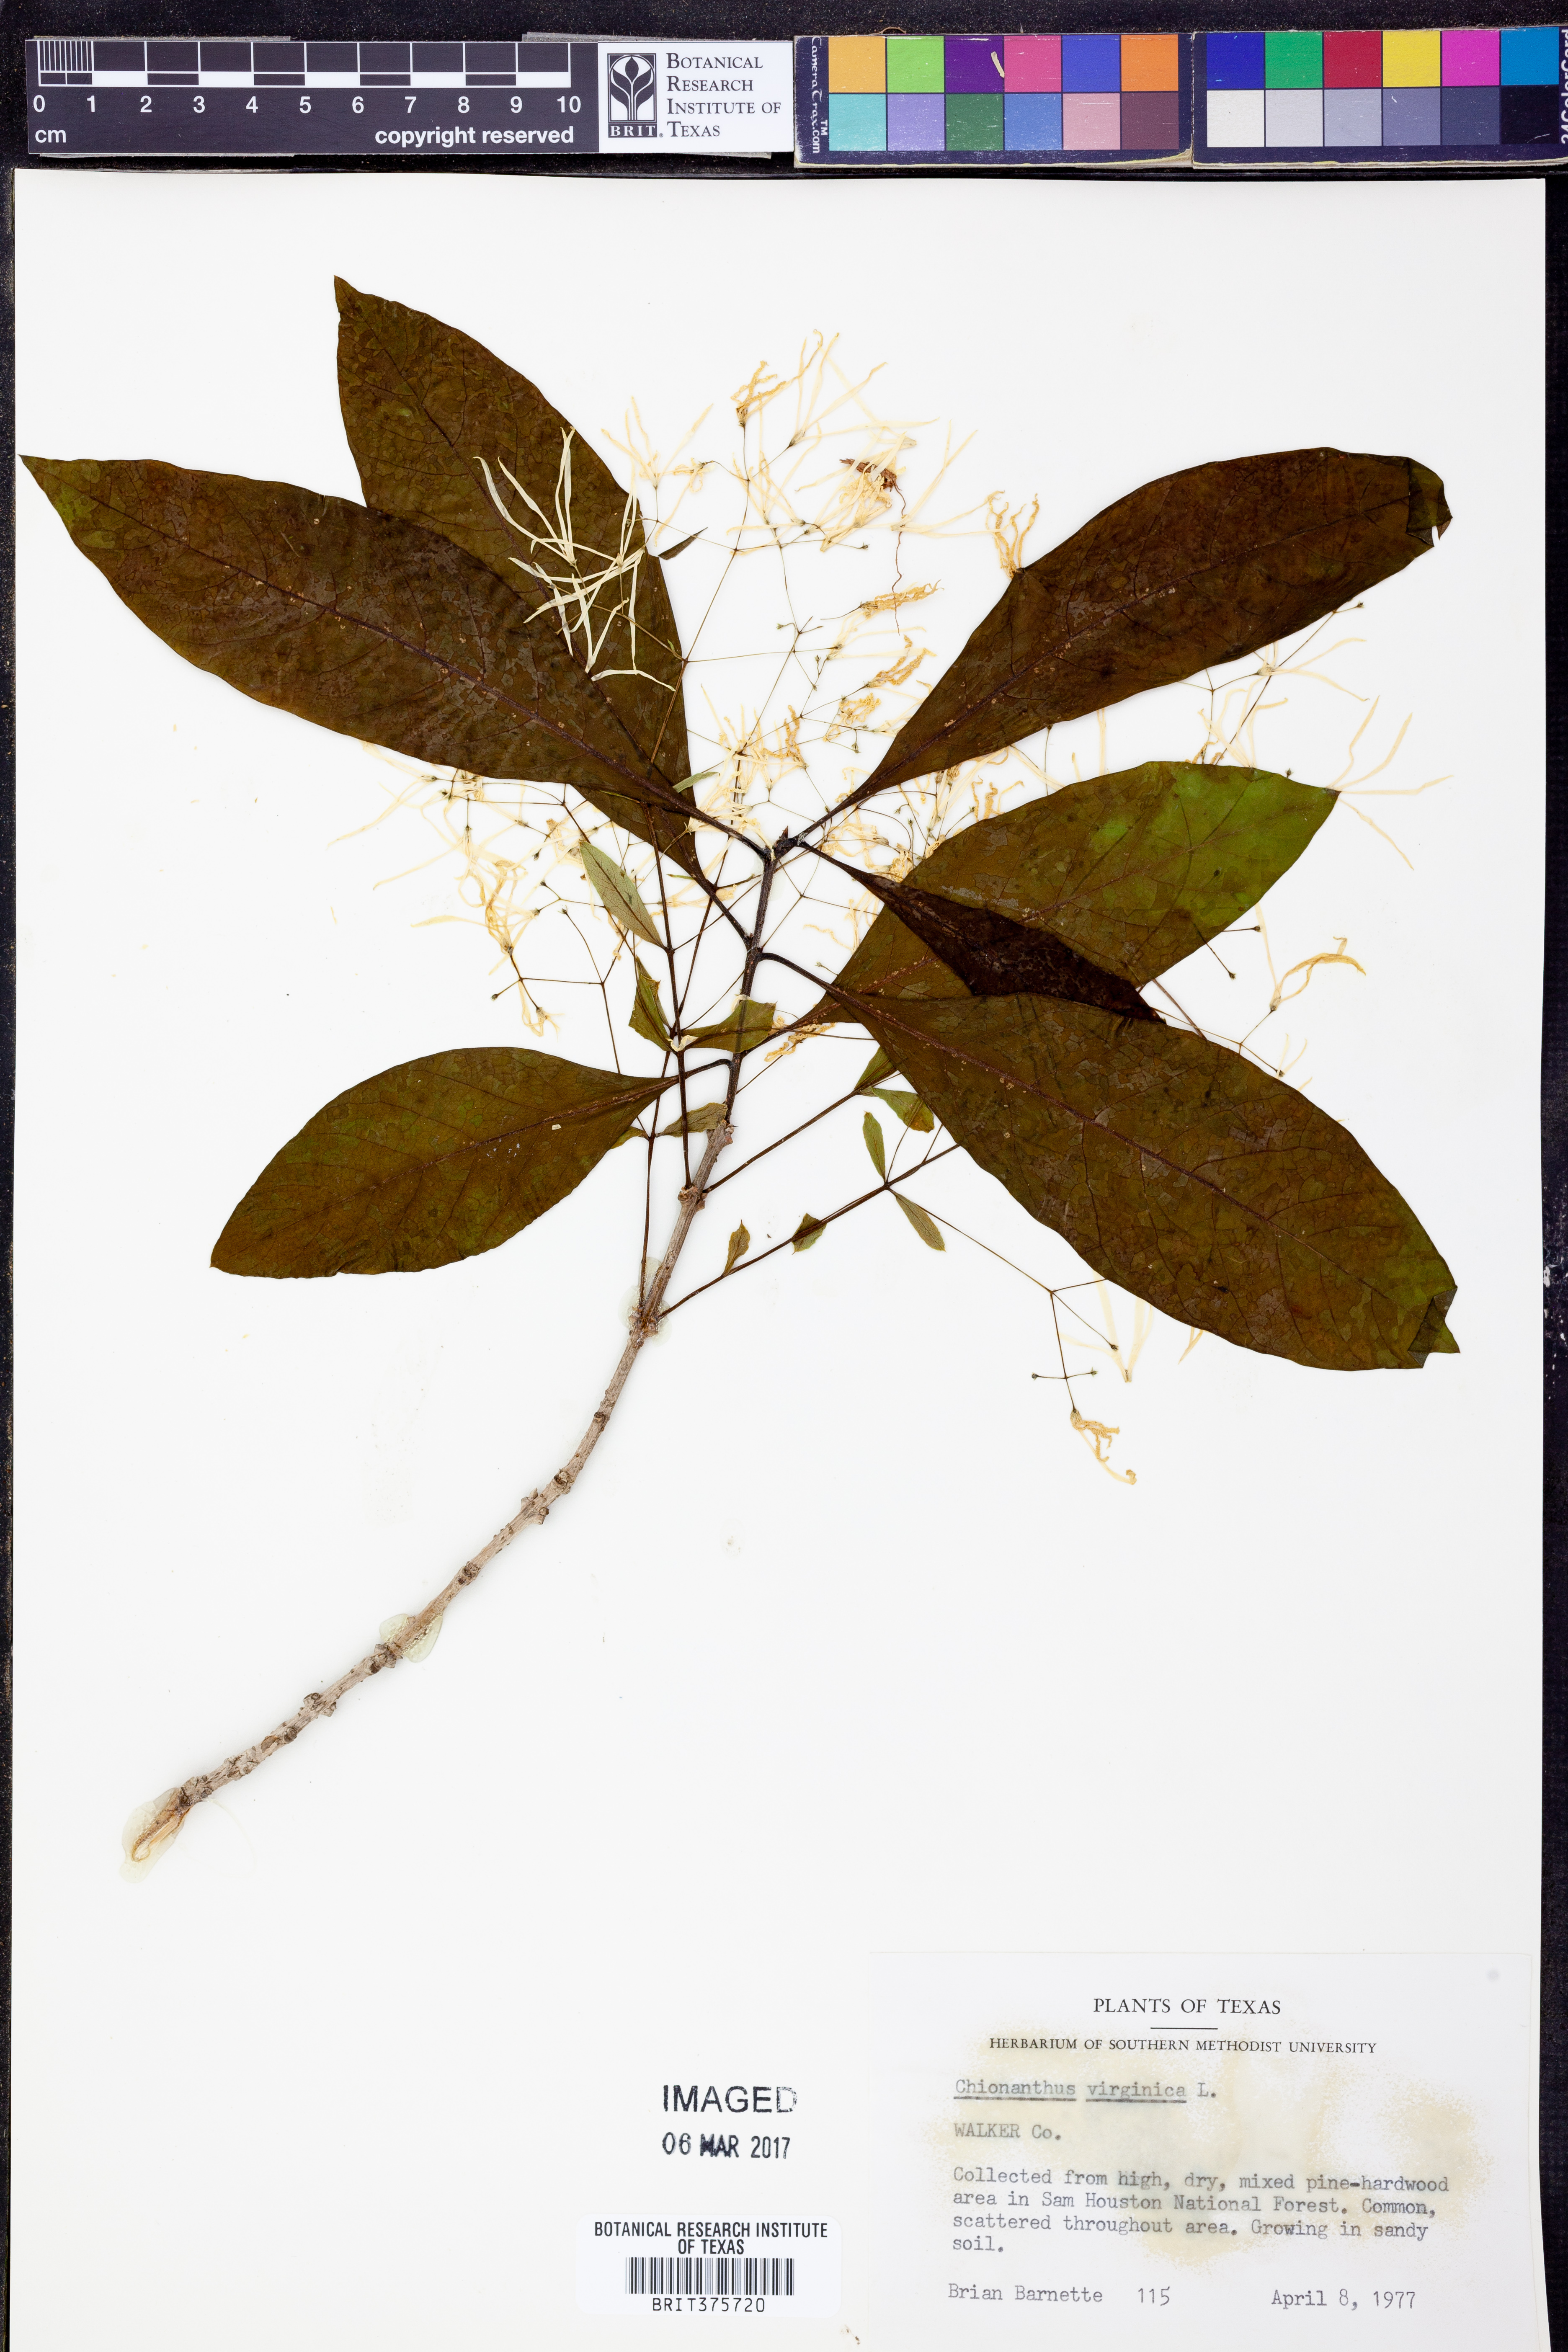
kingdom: Plantae
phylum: Tracheophyta
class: Magnoliopsida
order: Lamiales
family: Oleaceae
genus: Chionanthus
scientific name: Chionanthus virginicus
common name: American fringetree
